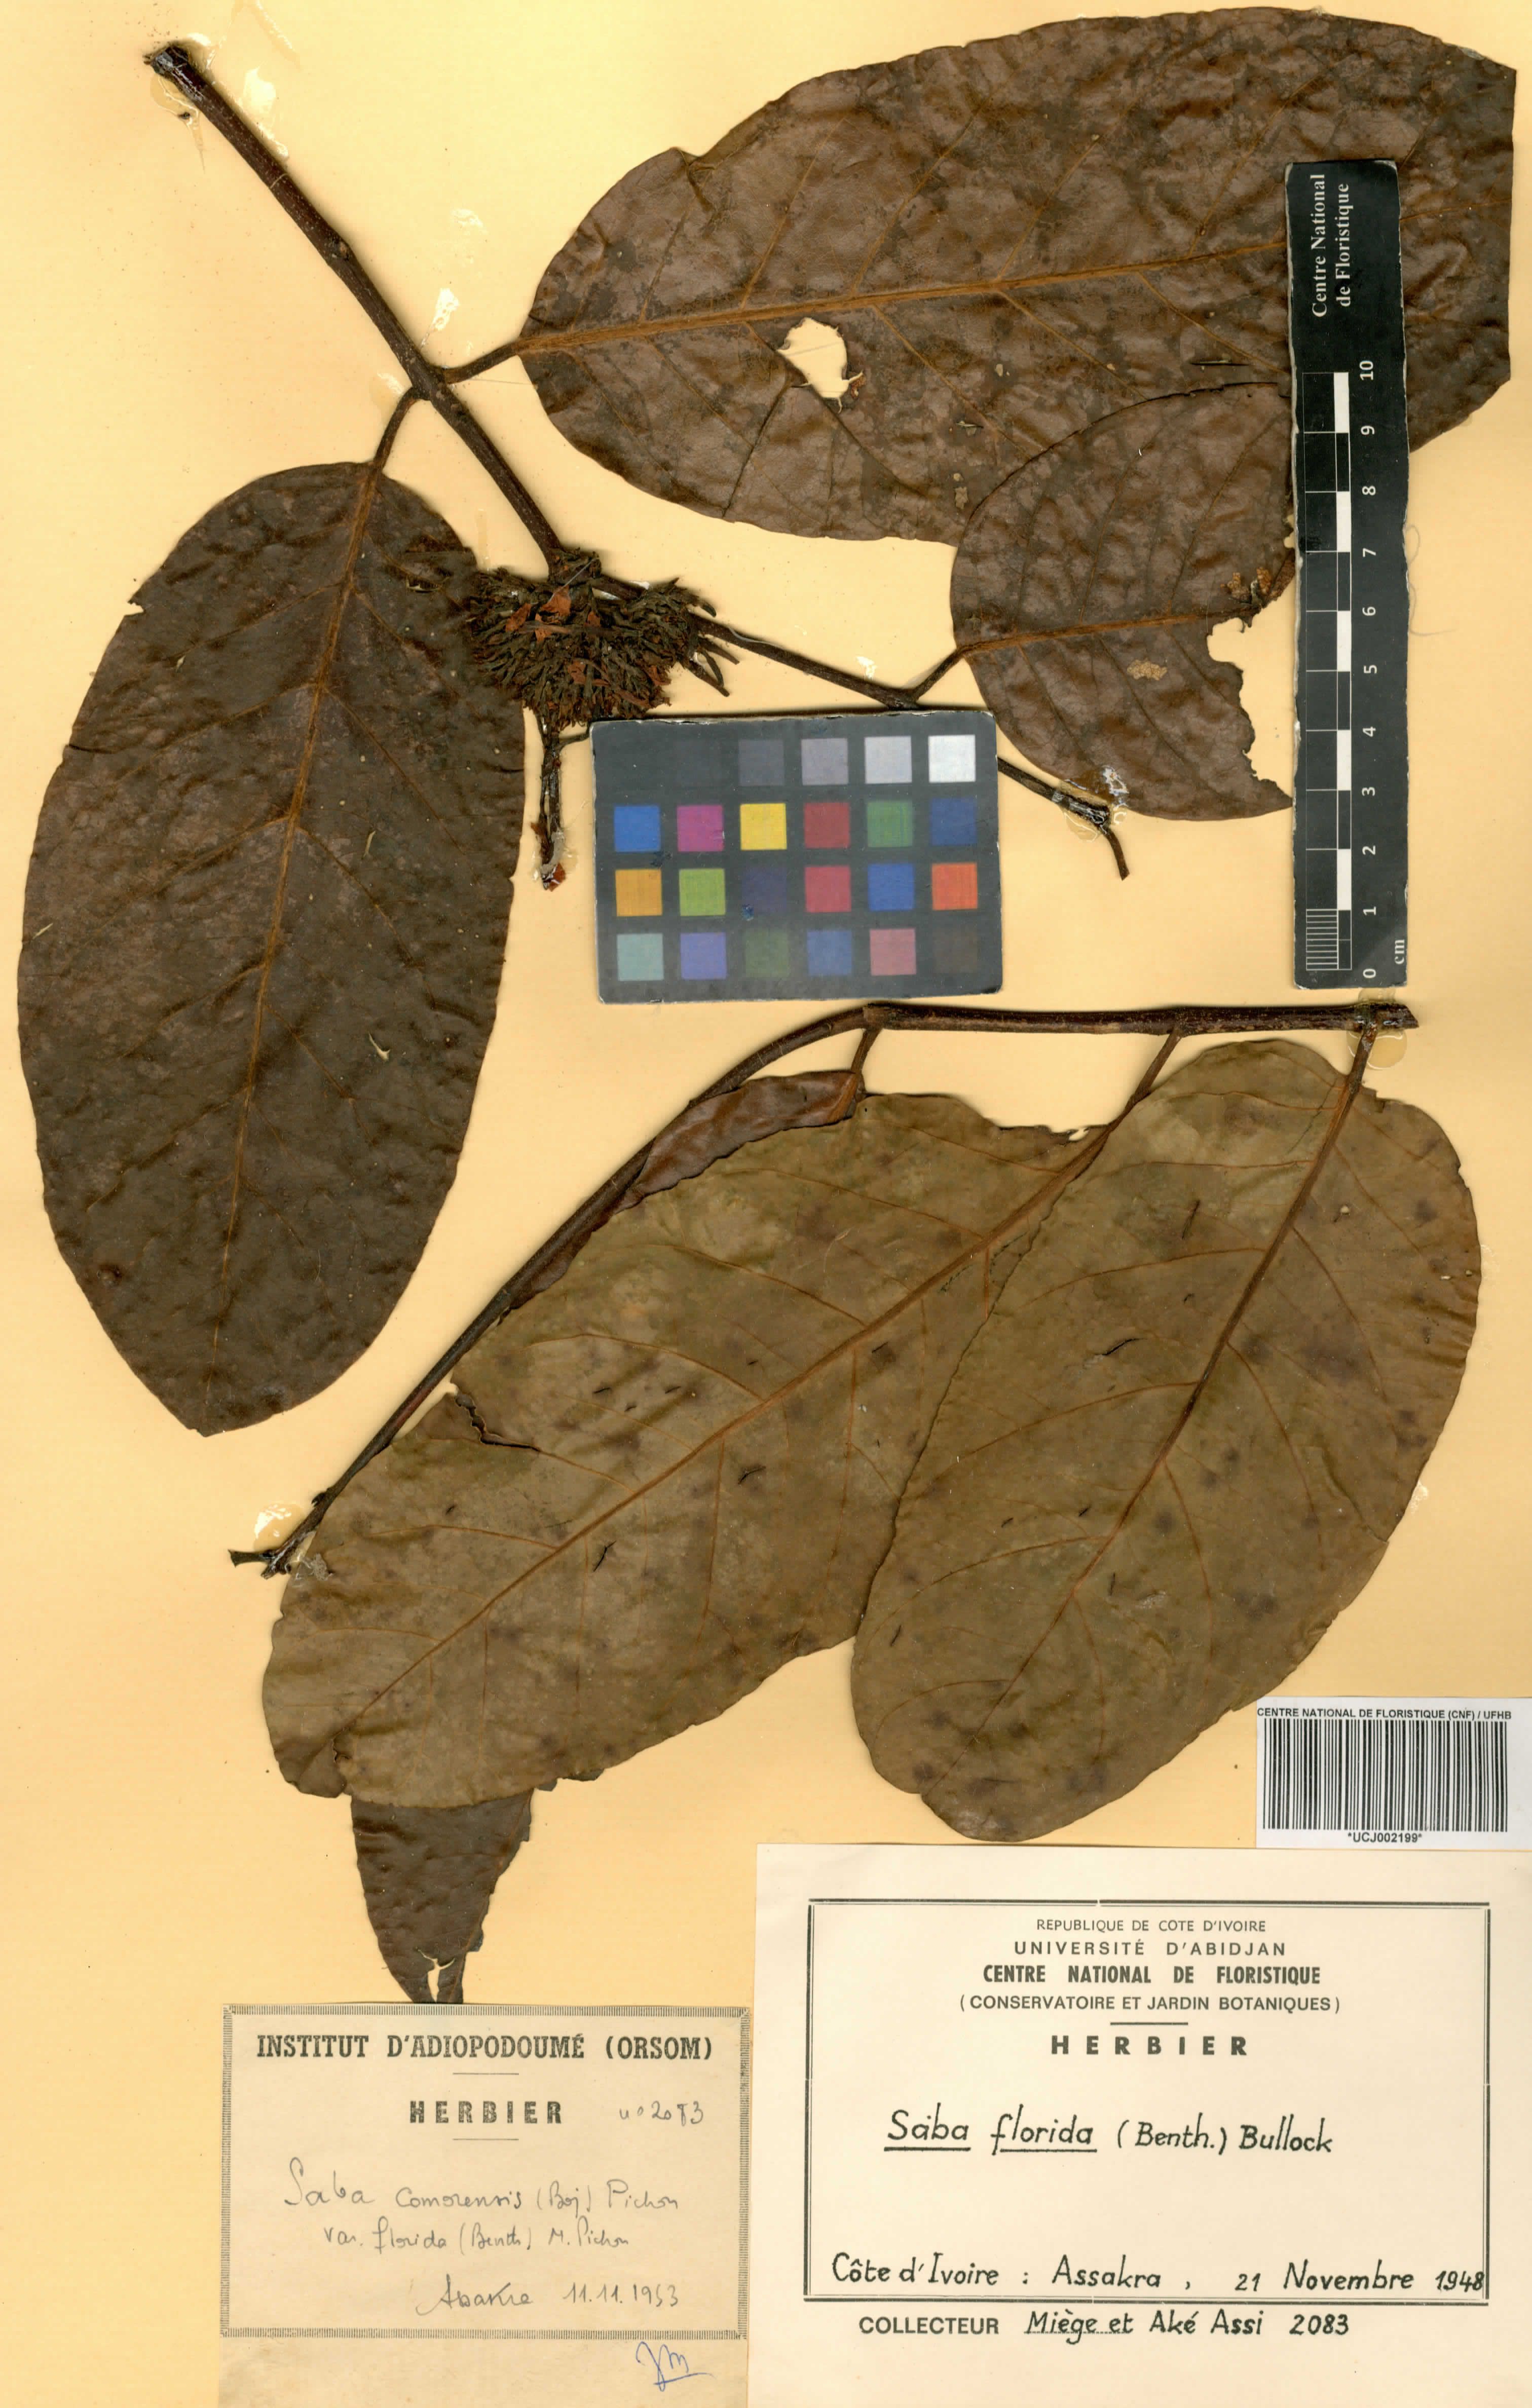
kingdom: Plantae
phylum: Tracheophyta
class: Magnoliopsida
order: Gentianales
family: Apocynaceae
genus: Saba
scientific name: Saba comorensis
